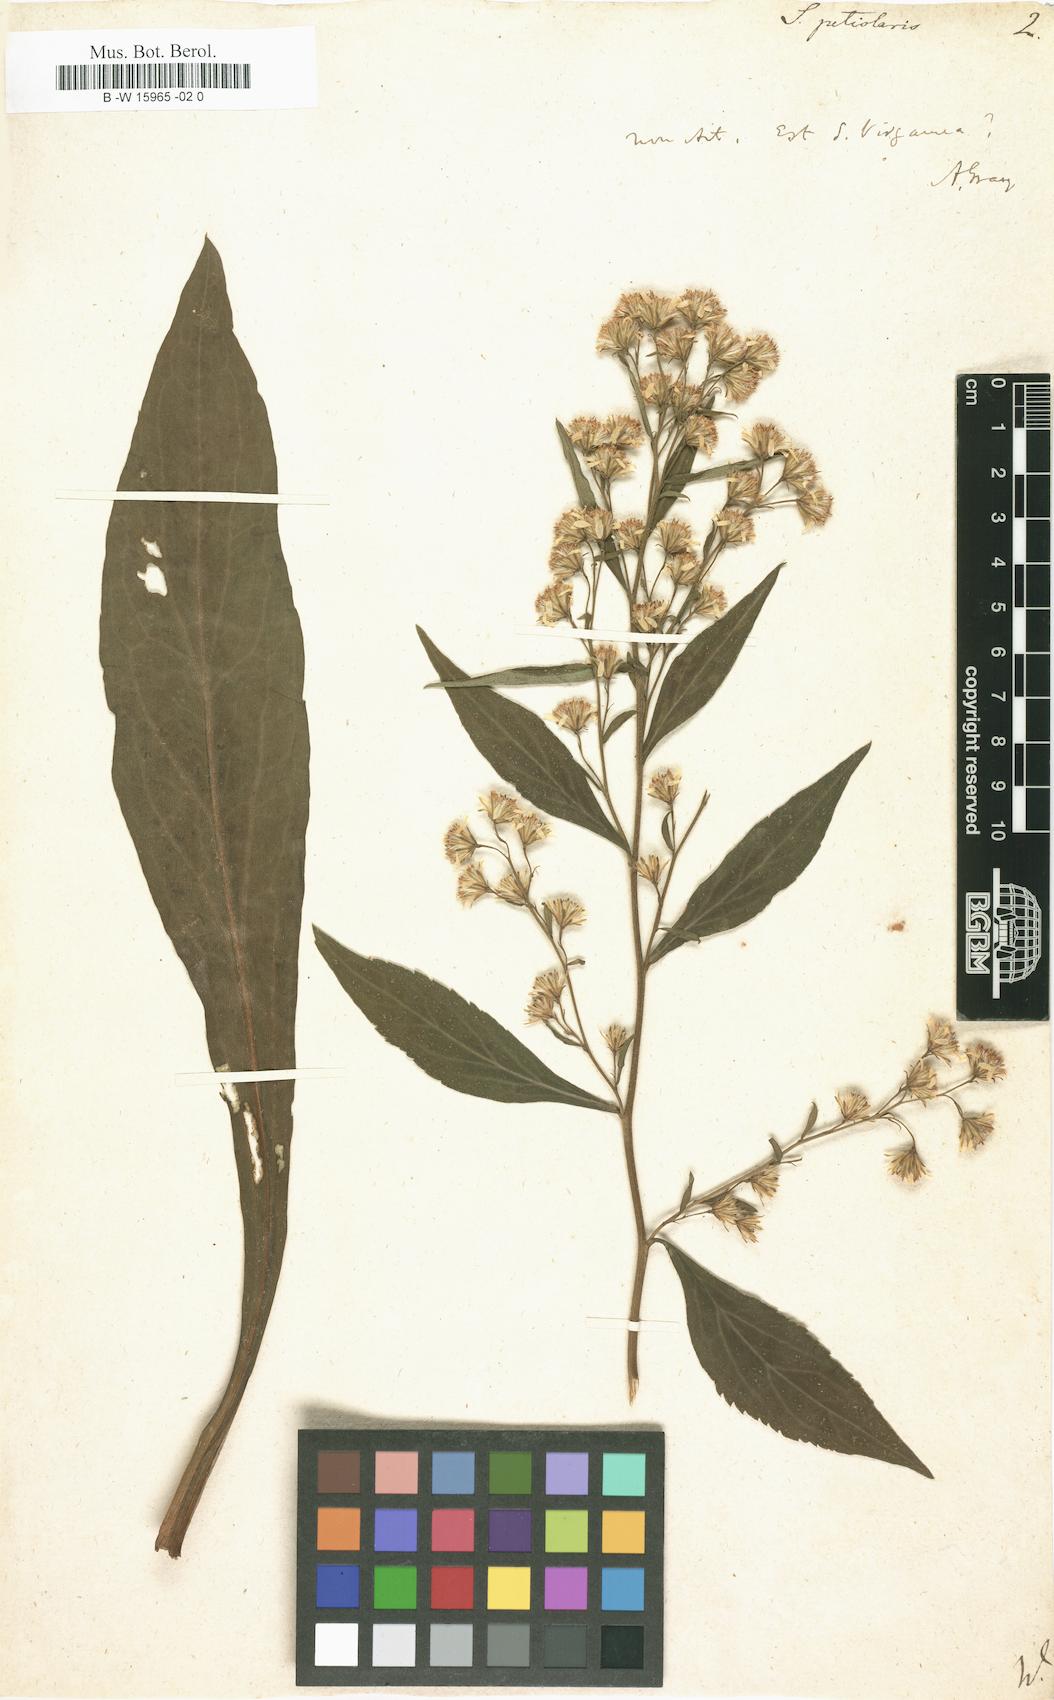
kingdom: Plantae
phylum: Tracheophyta
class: Magnoliopsida
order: Asterales
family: Asteraceae
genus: Solidago
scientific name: Solidago petiolaris
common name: Downy ragged goldenrod
